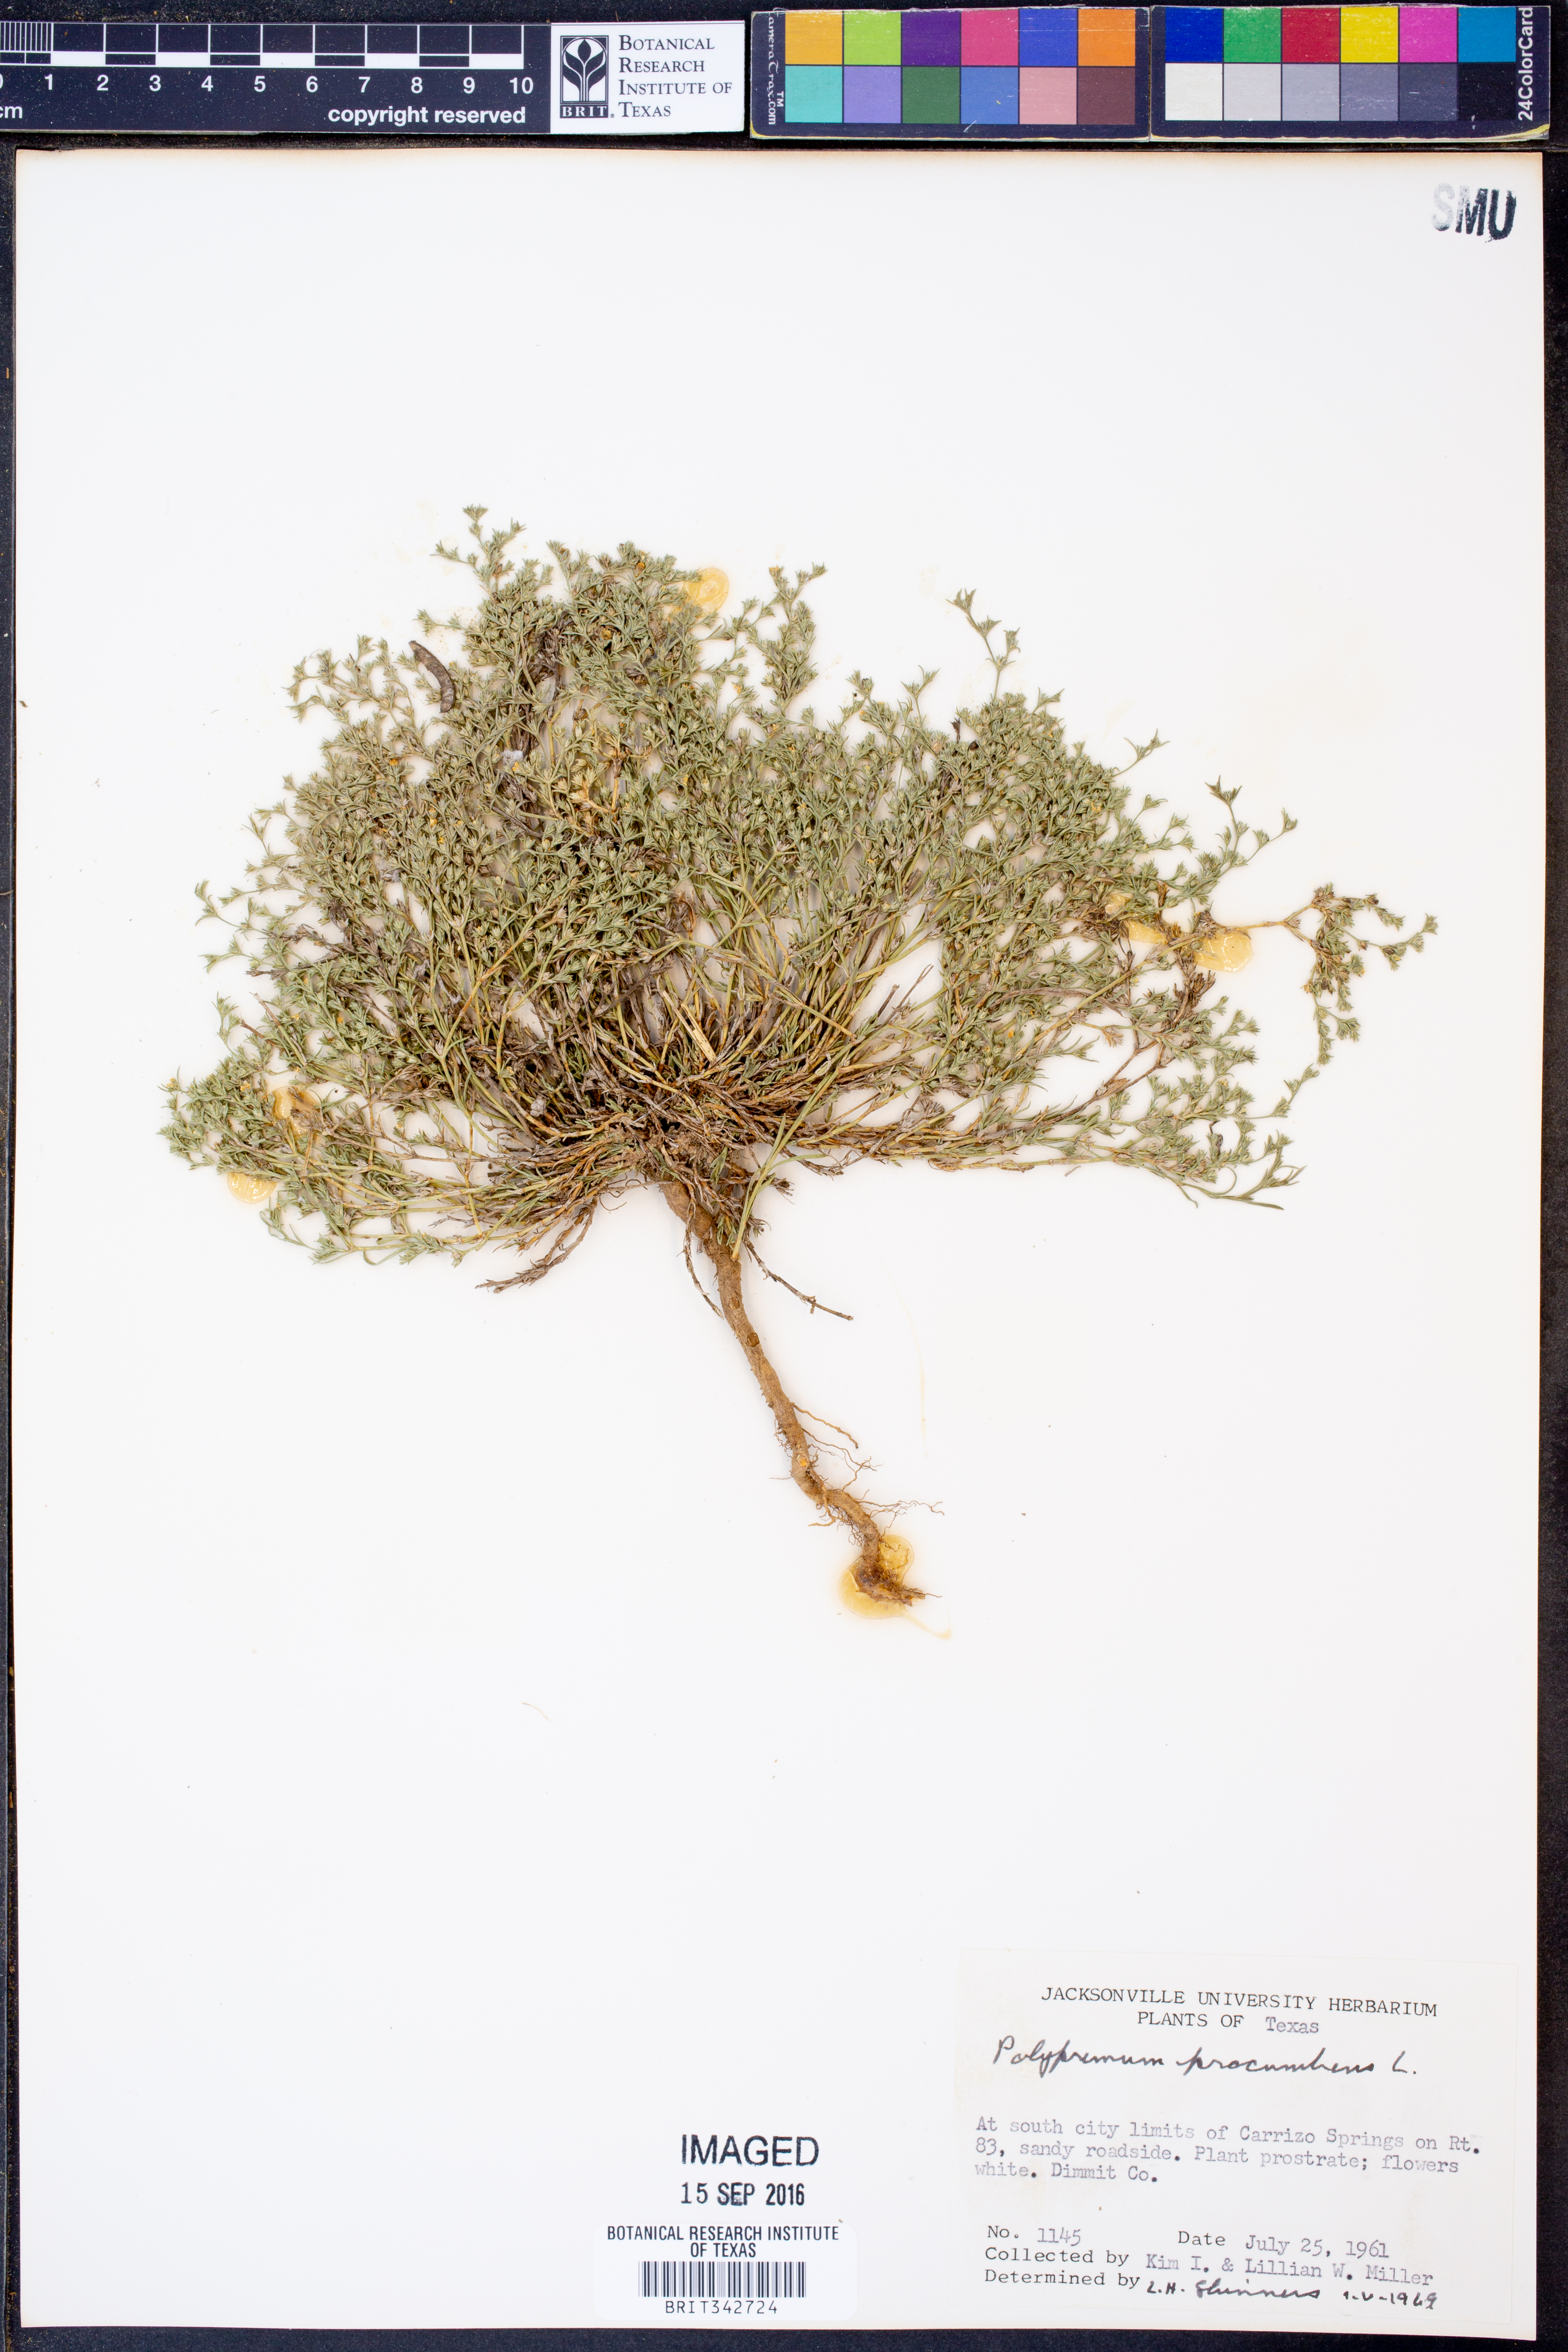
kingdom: Plantae
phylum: Tracheophyta
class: Magnoliopsida
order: Lamiales
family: Tetrachondraceae
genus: Polypremum
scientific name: Polypremum procumbens
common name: Juniper-leaf
